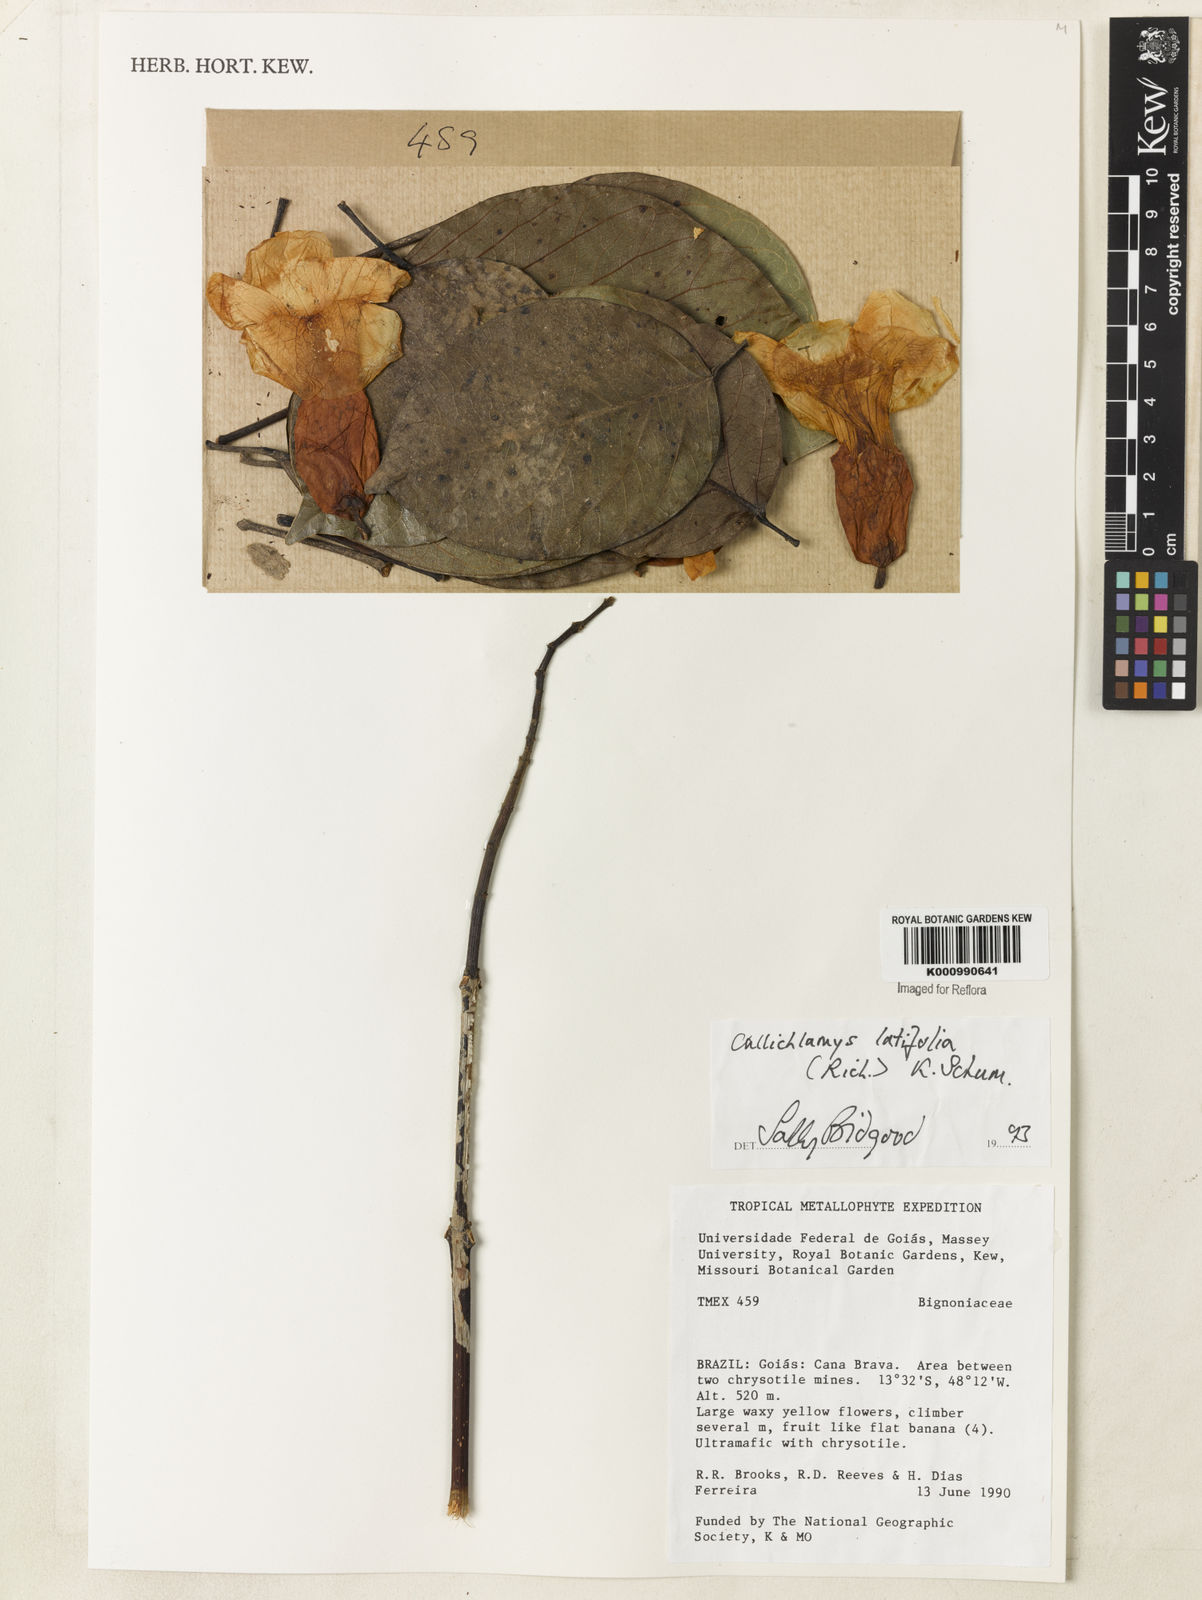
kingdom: Plantae
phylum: Tracheophyta
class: Magnoliopsida
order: Lamiales
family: Bignoniaceae
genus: Callichlamys
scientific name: Callichlamys latifolia
